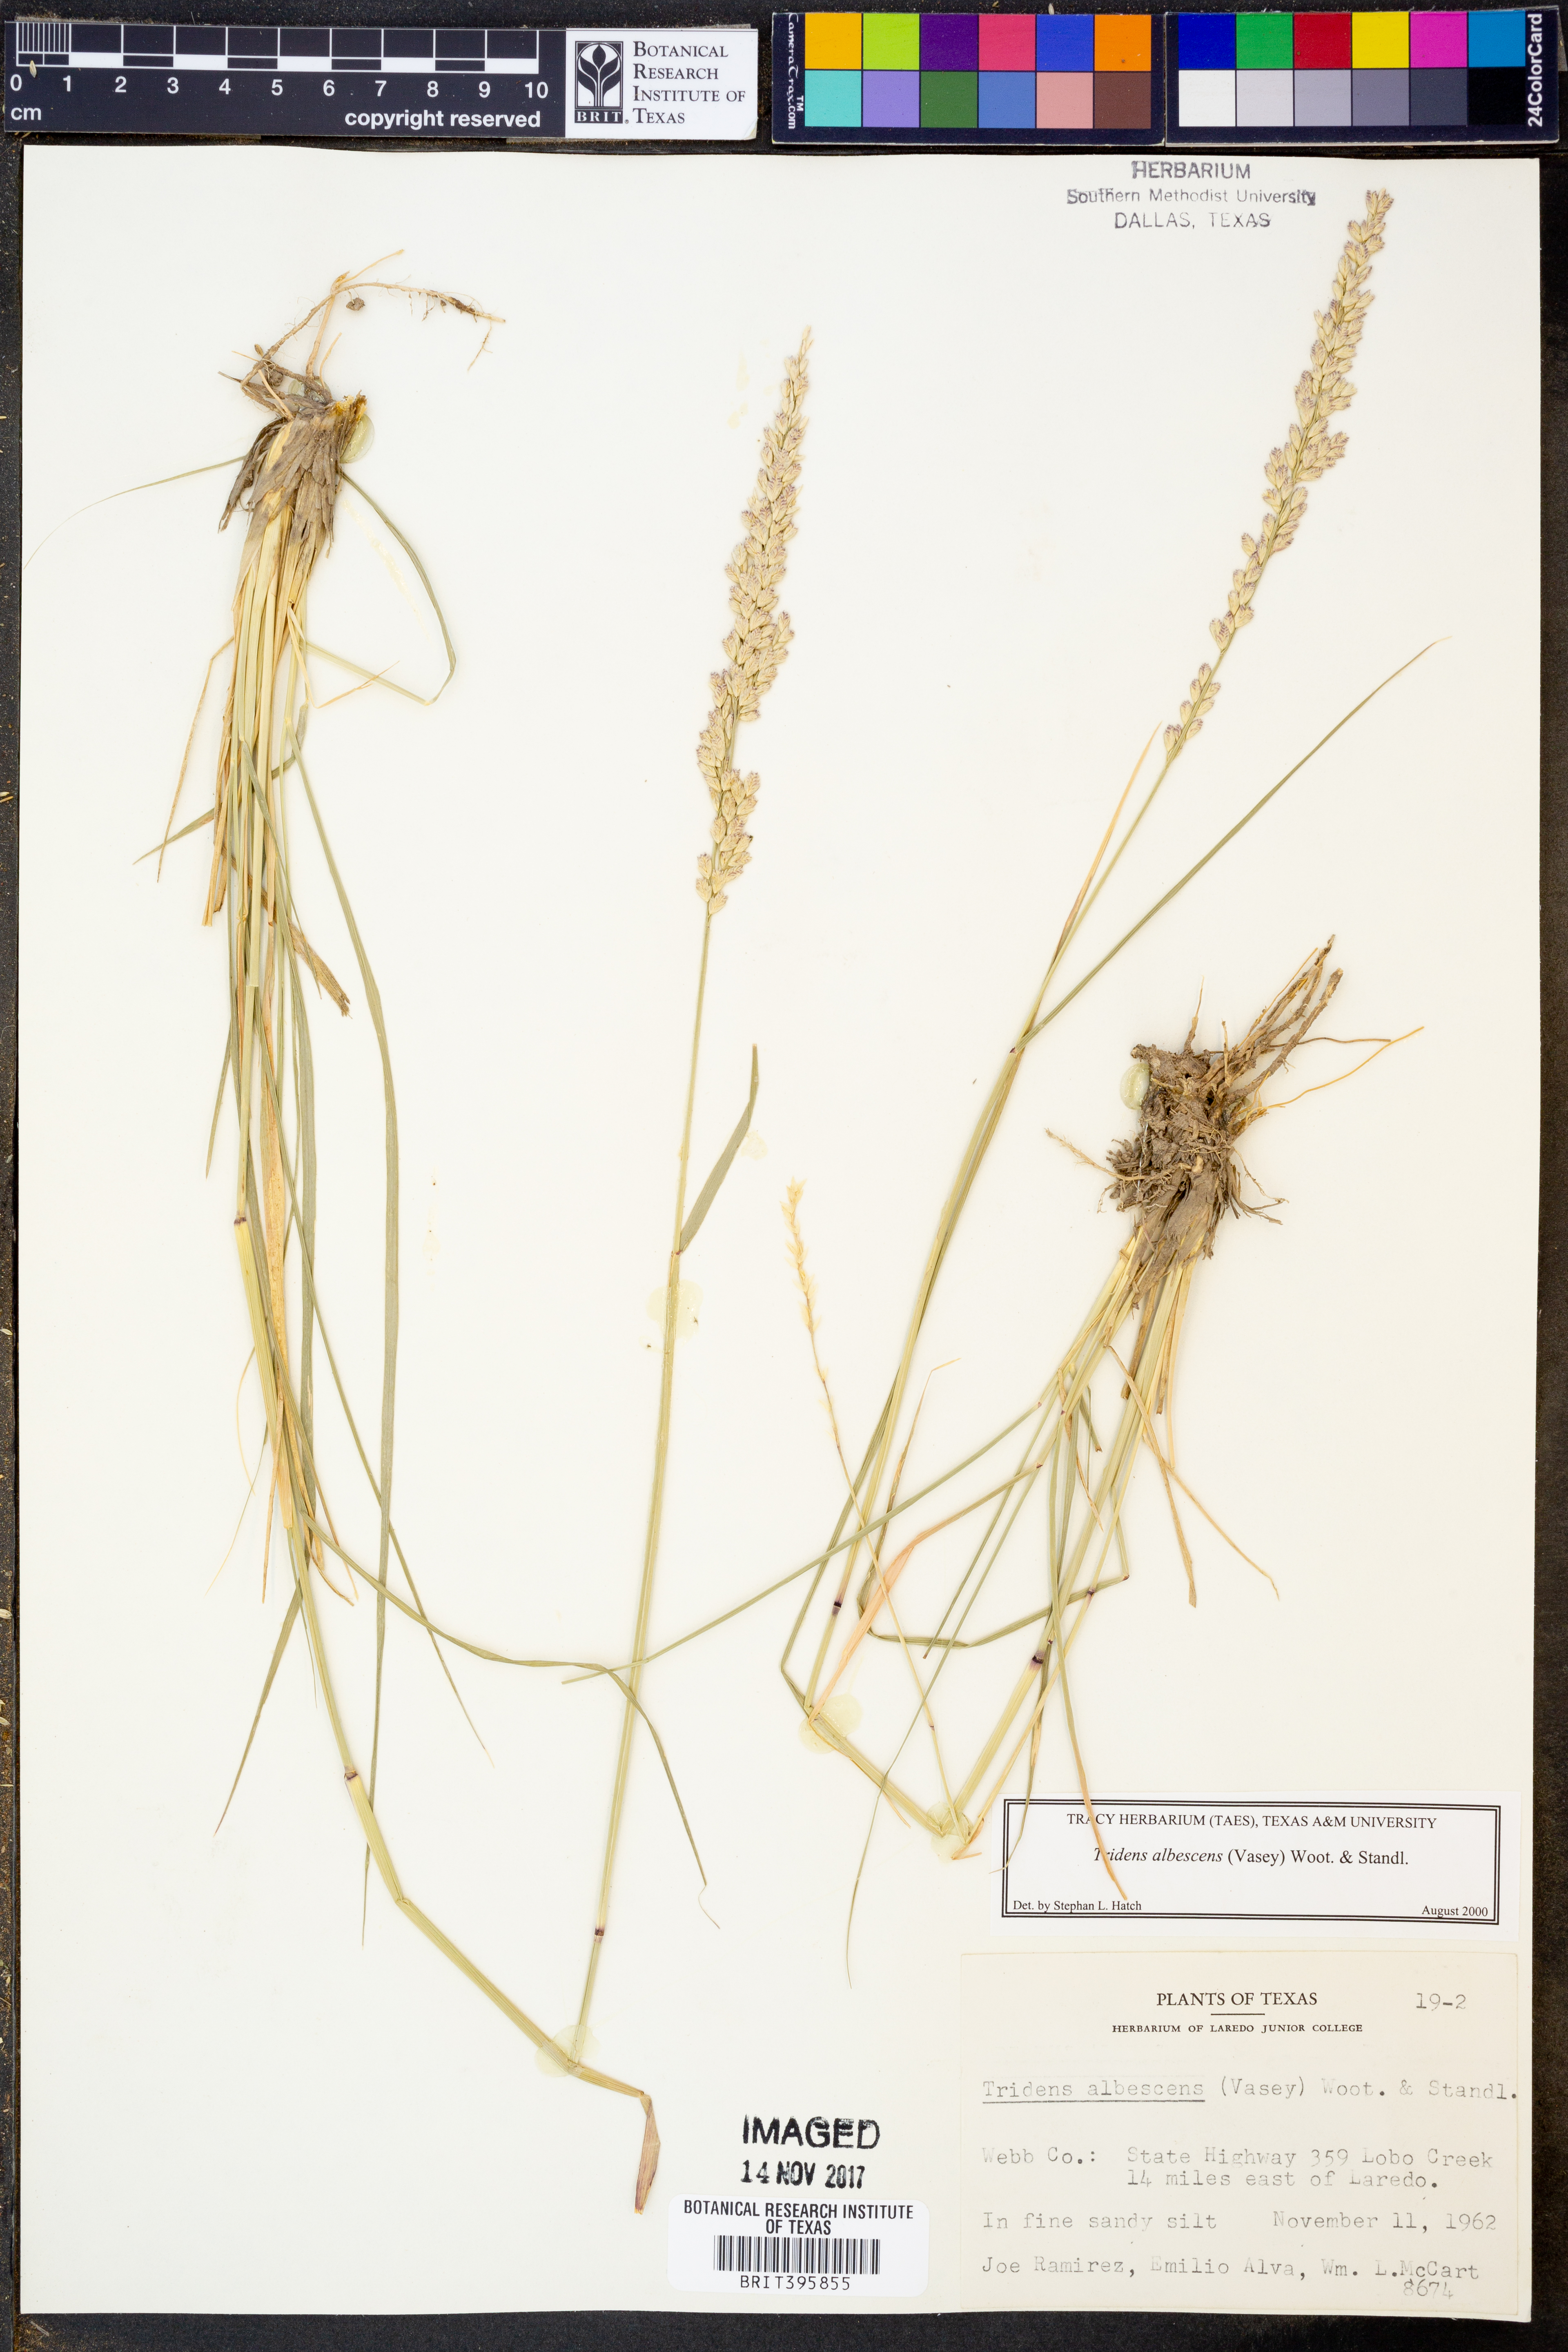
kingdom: Plantae
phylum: Tracheophyta
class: Liliopsida
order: Poales
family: Poaceae
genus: Tridens
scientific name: Tridens albescens
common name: White tridens
